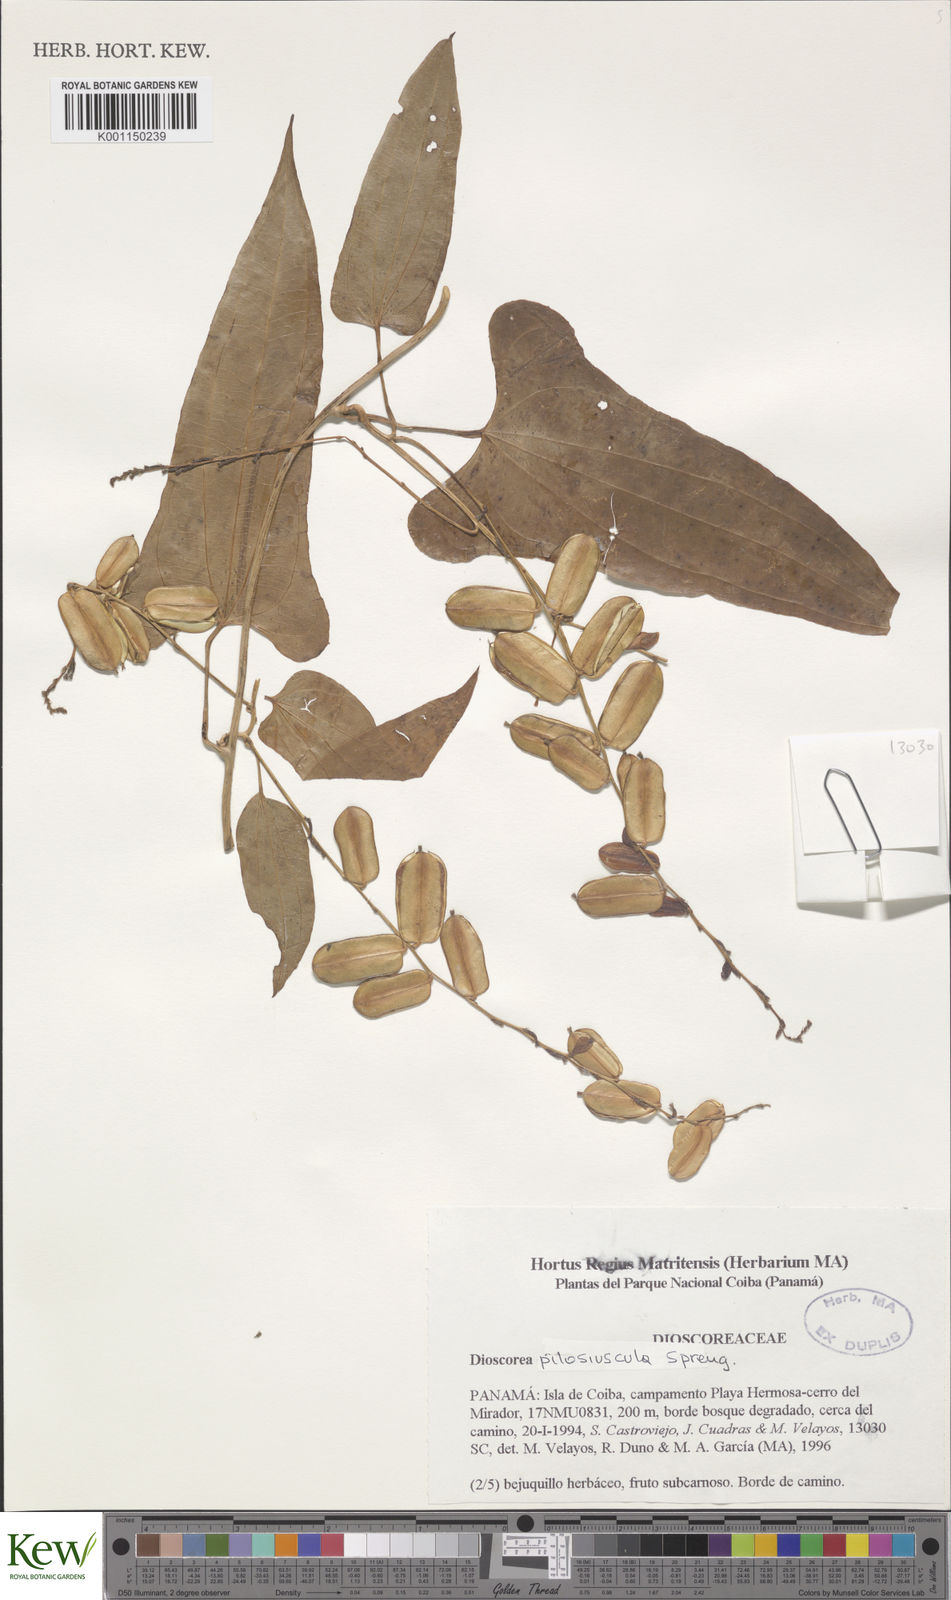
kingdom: Plantae
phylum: Tracheophyta
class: Liliopsida
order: Dioscoreales
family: Dioscoreaceae
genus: Dioscorea
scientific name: Dioscorea pilosiuscula
